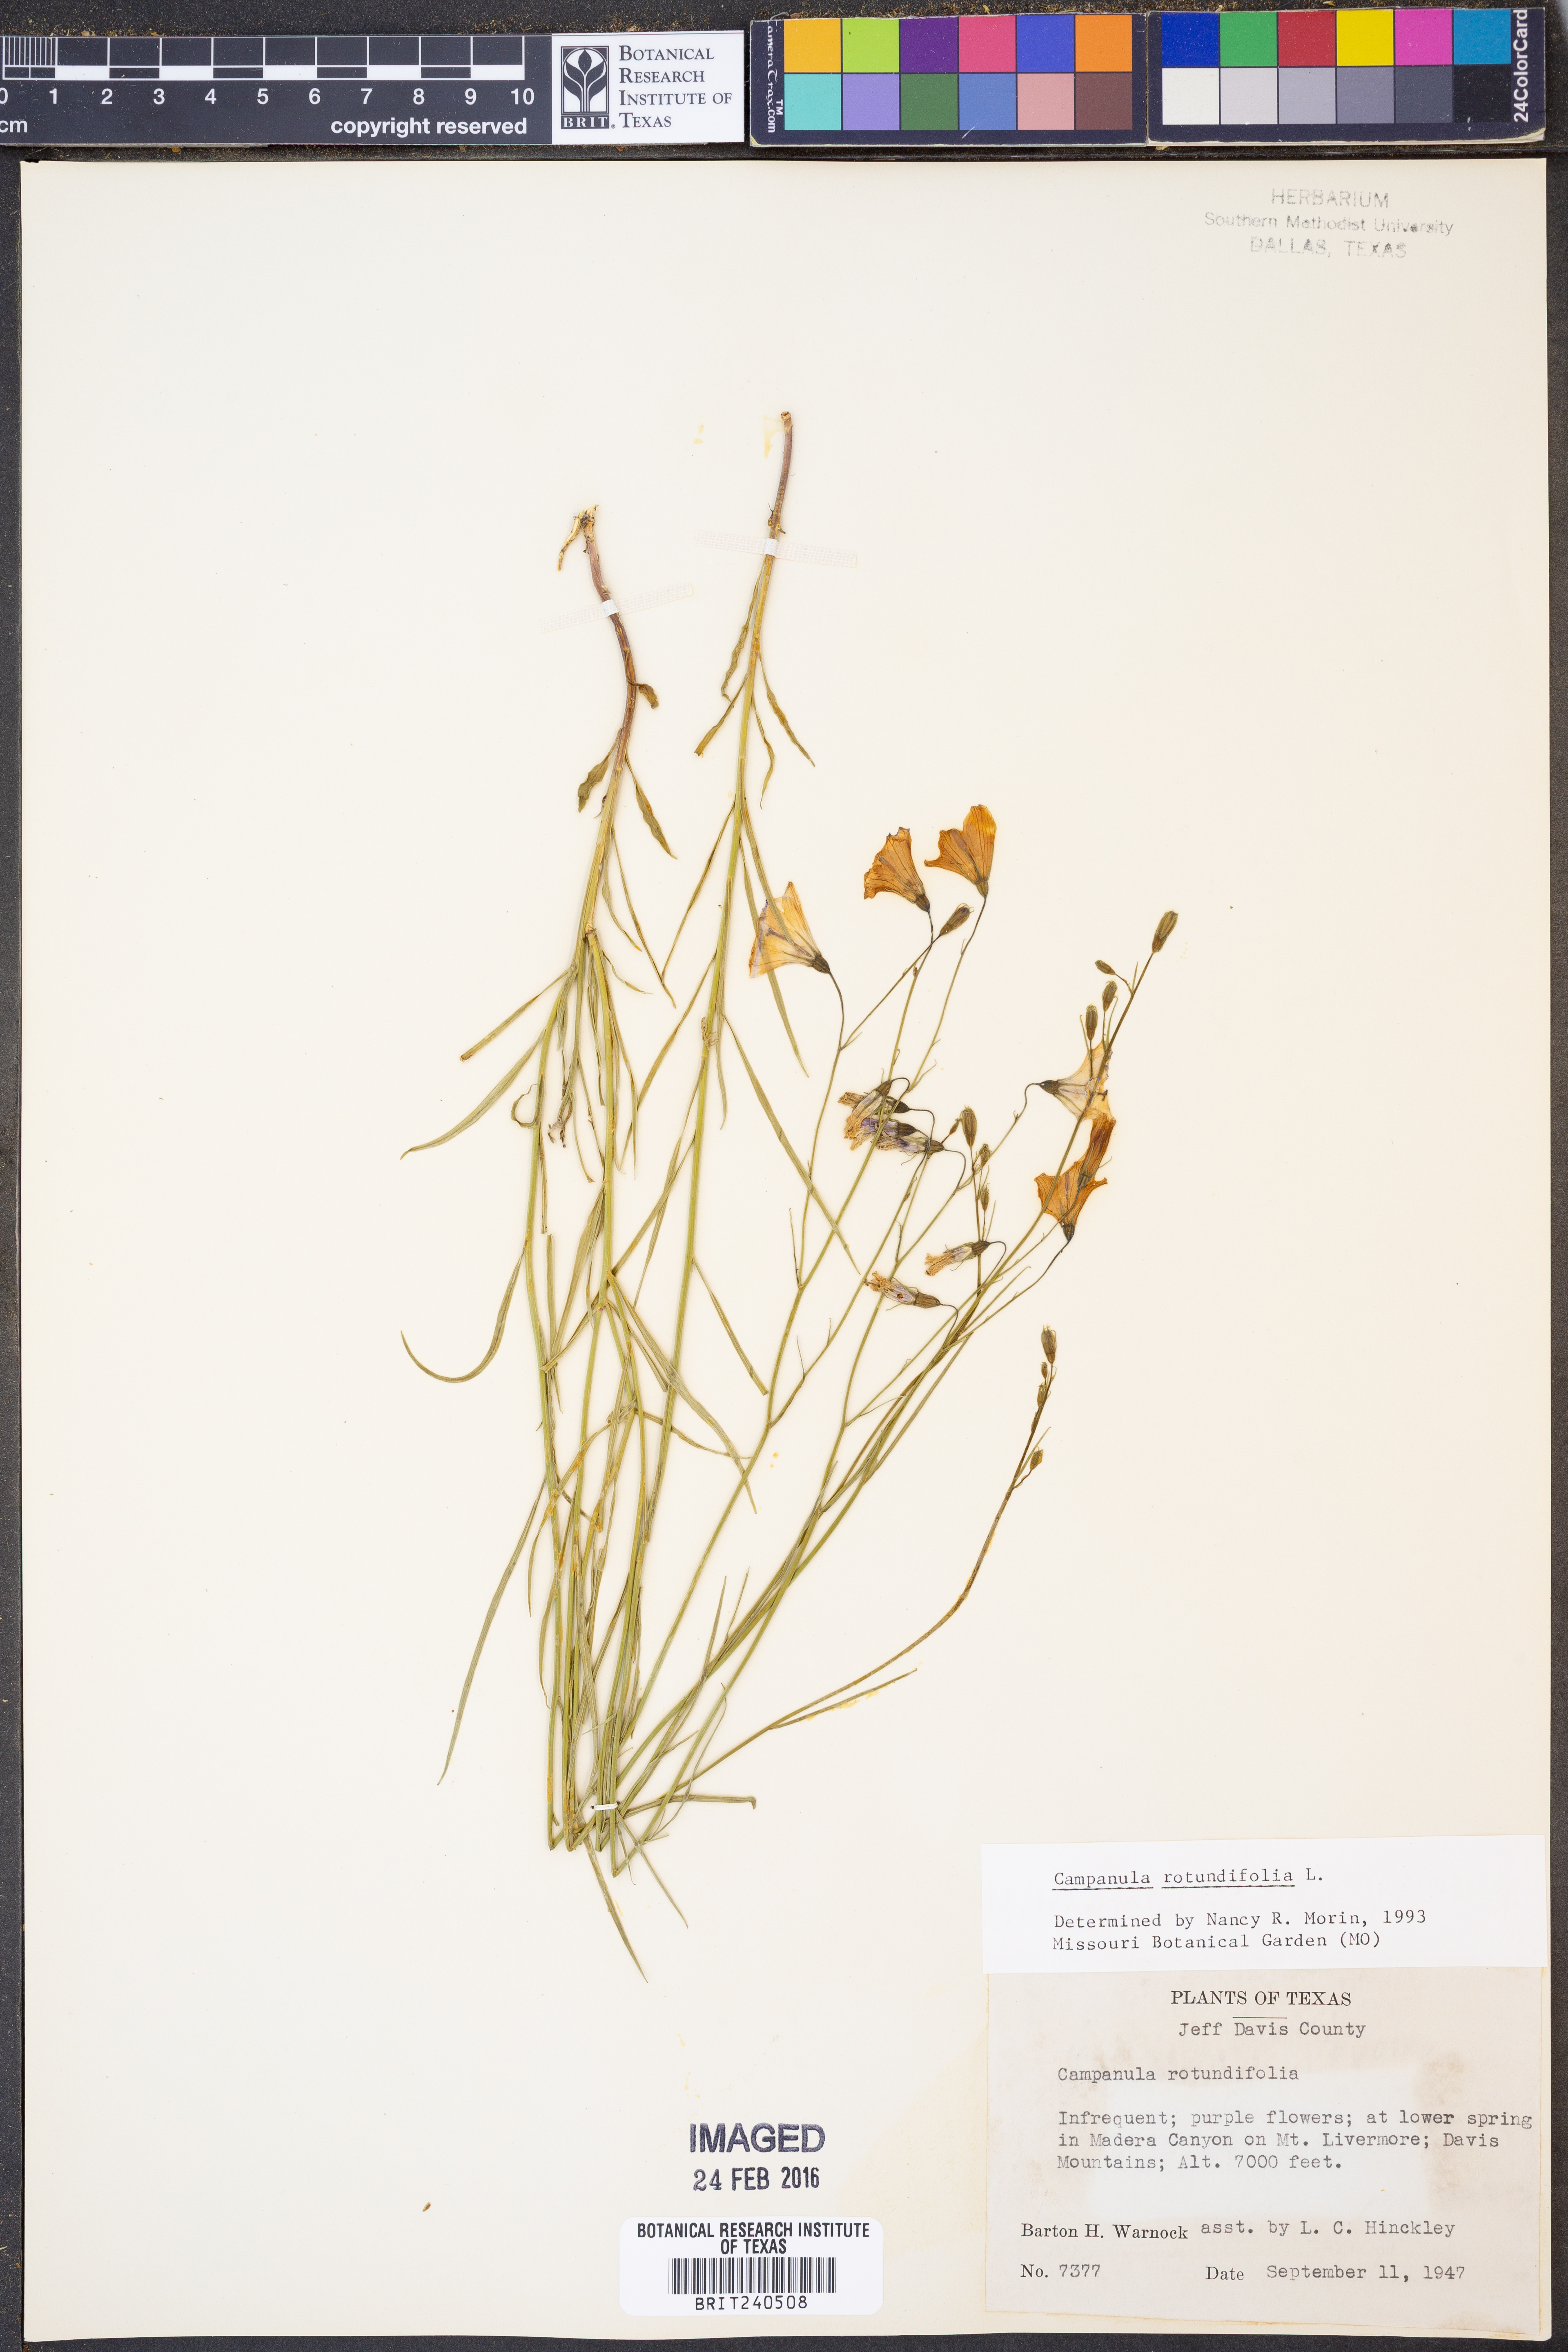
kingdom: Plantae
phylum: Tracheophyta
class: Magnoliopsida
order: Asterales
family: Campanulaceae
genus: Campanula
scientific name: Campanula rotundifolia
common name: Harebell
